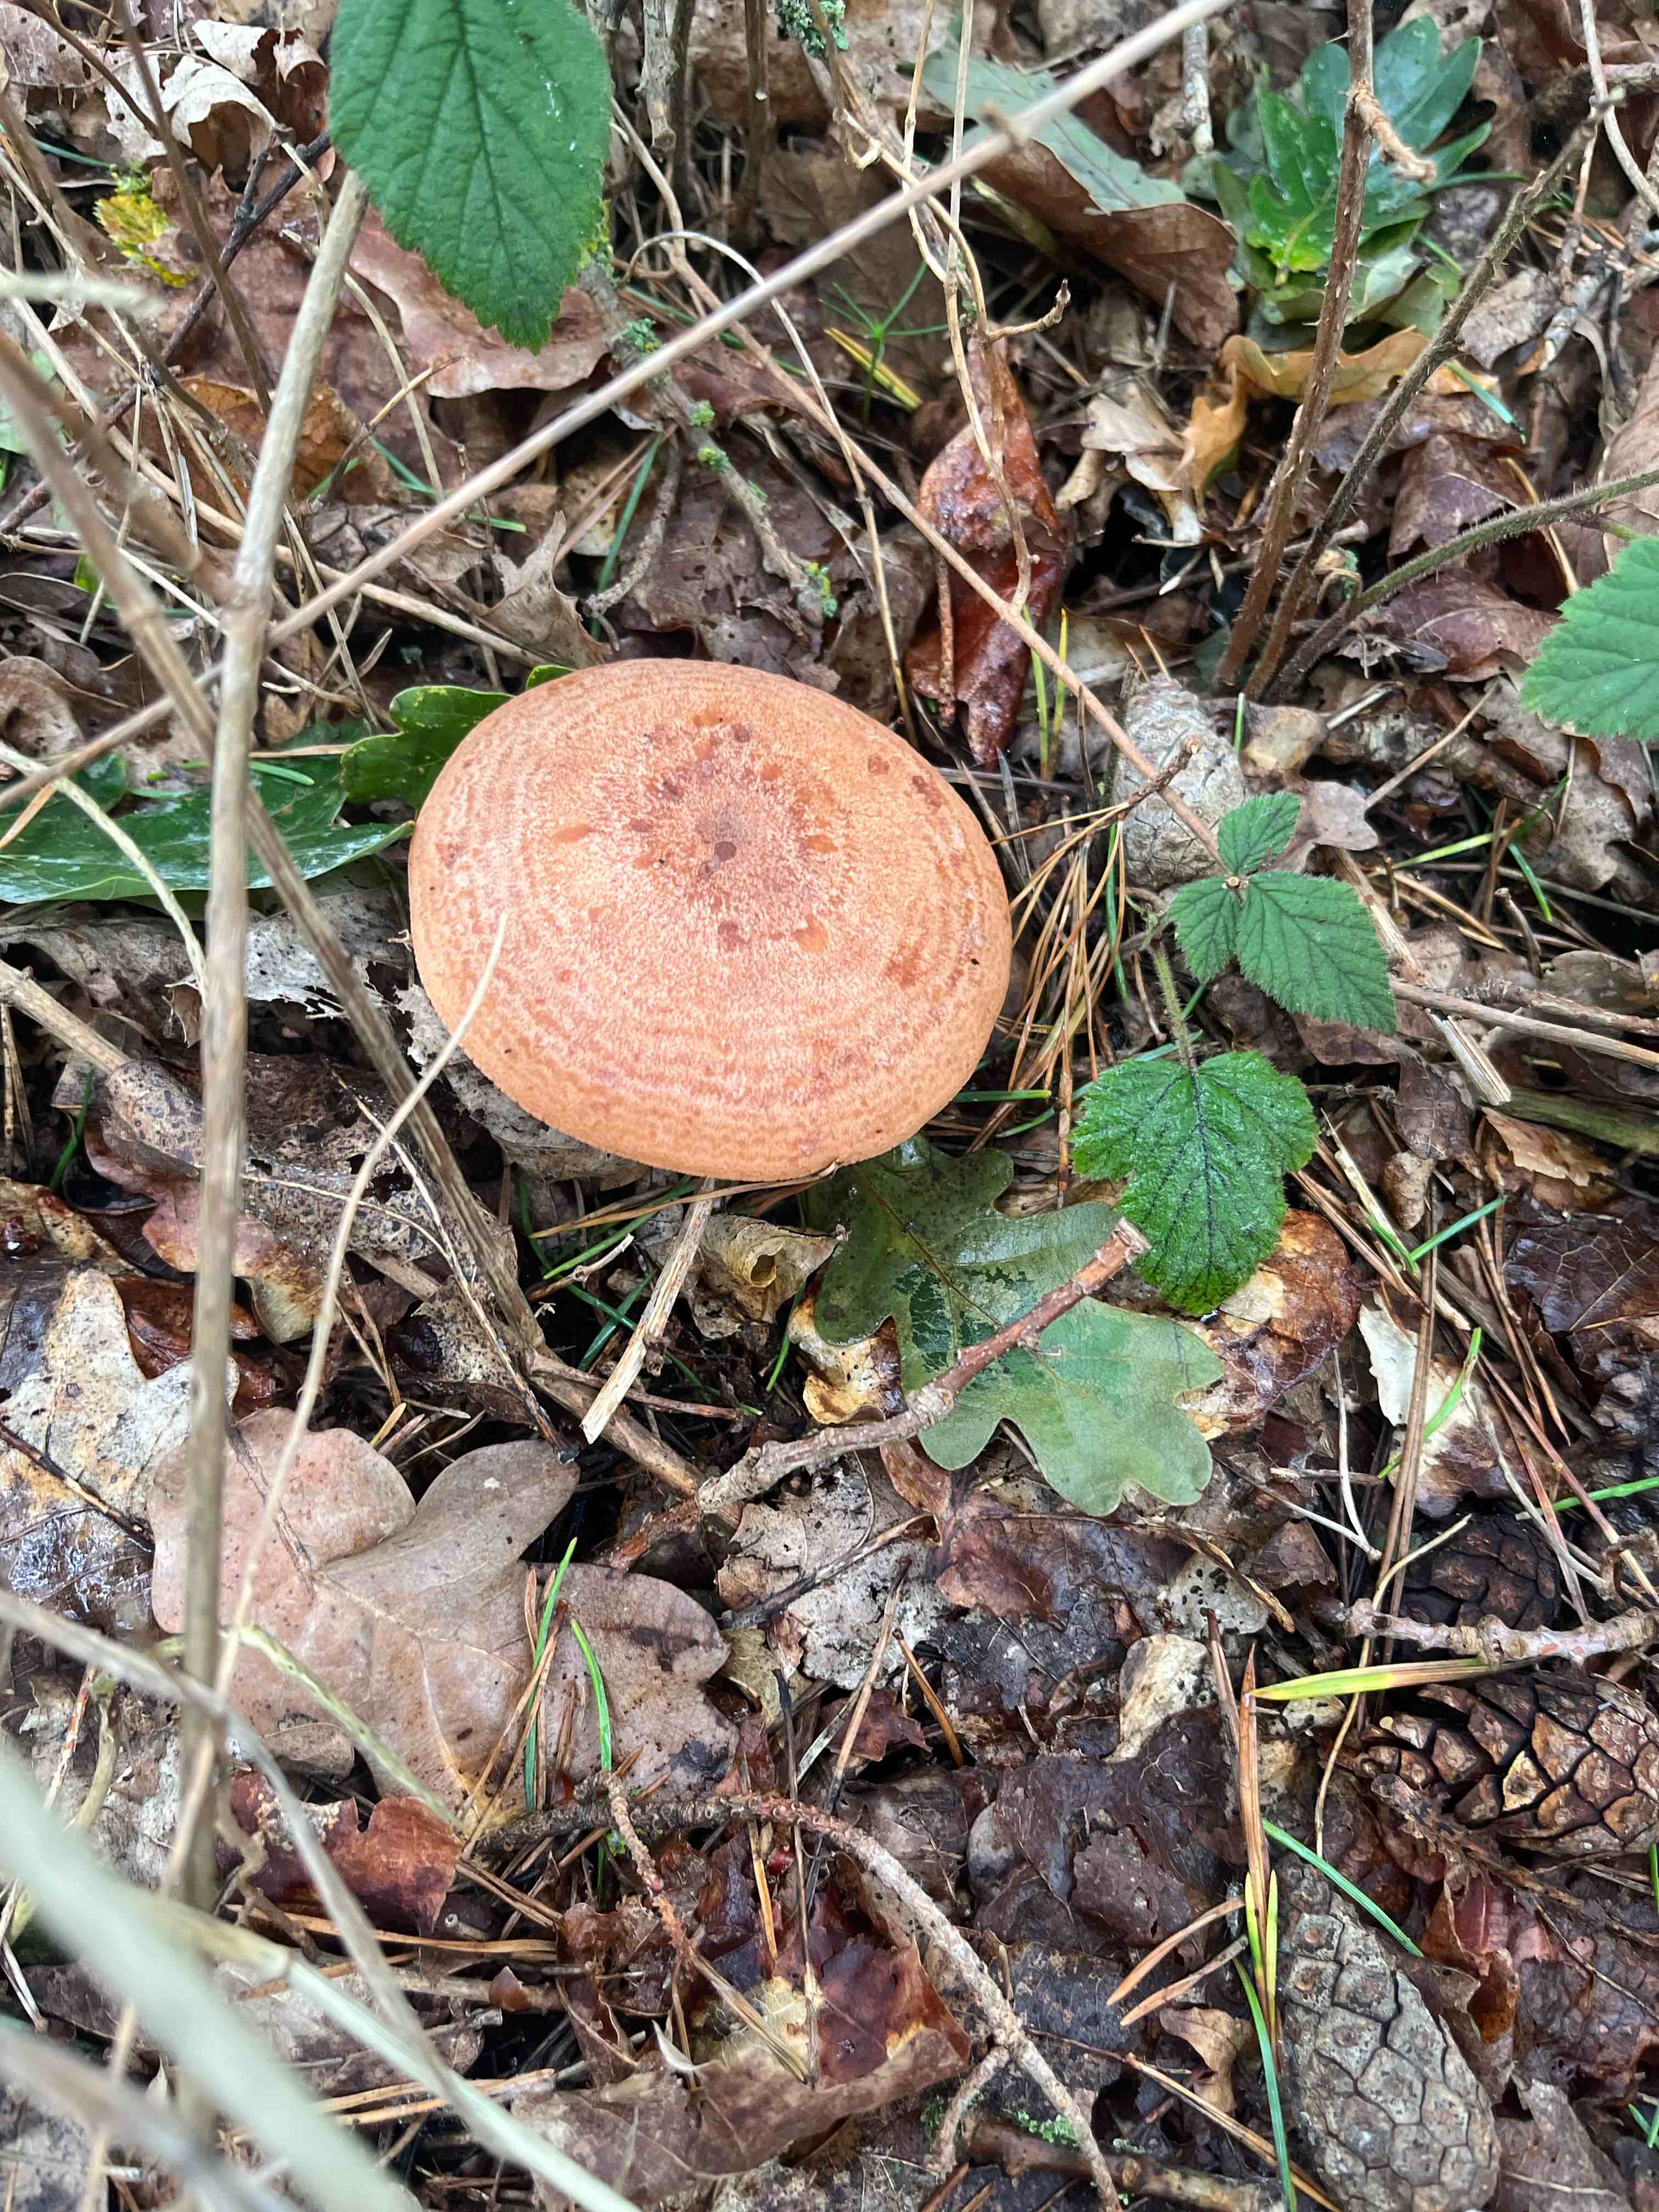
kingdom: Fungi
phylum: Basidiomycota
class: Agaricomycetes
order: Russulales
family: Russulaceae
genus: Lactarius
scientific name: Lactarius quietus
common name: ege-mælkehat
